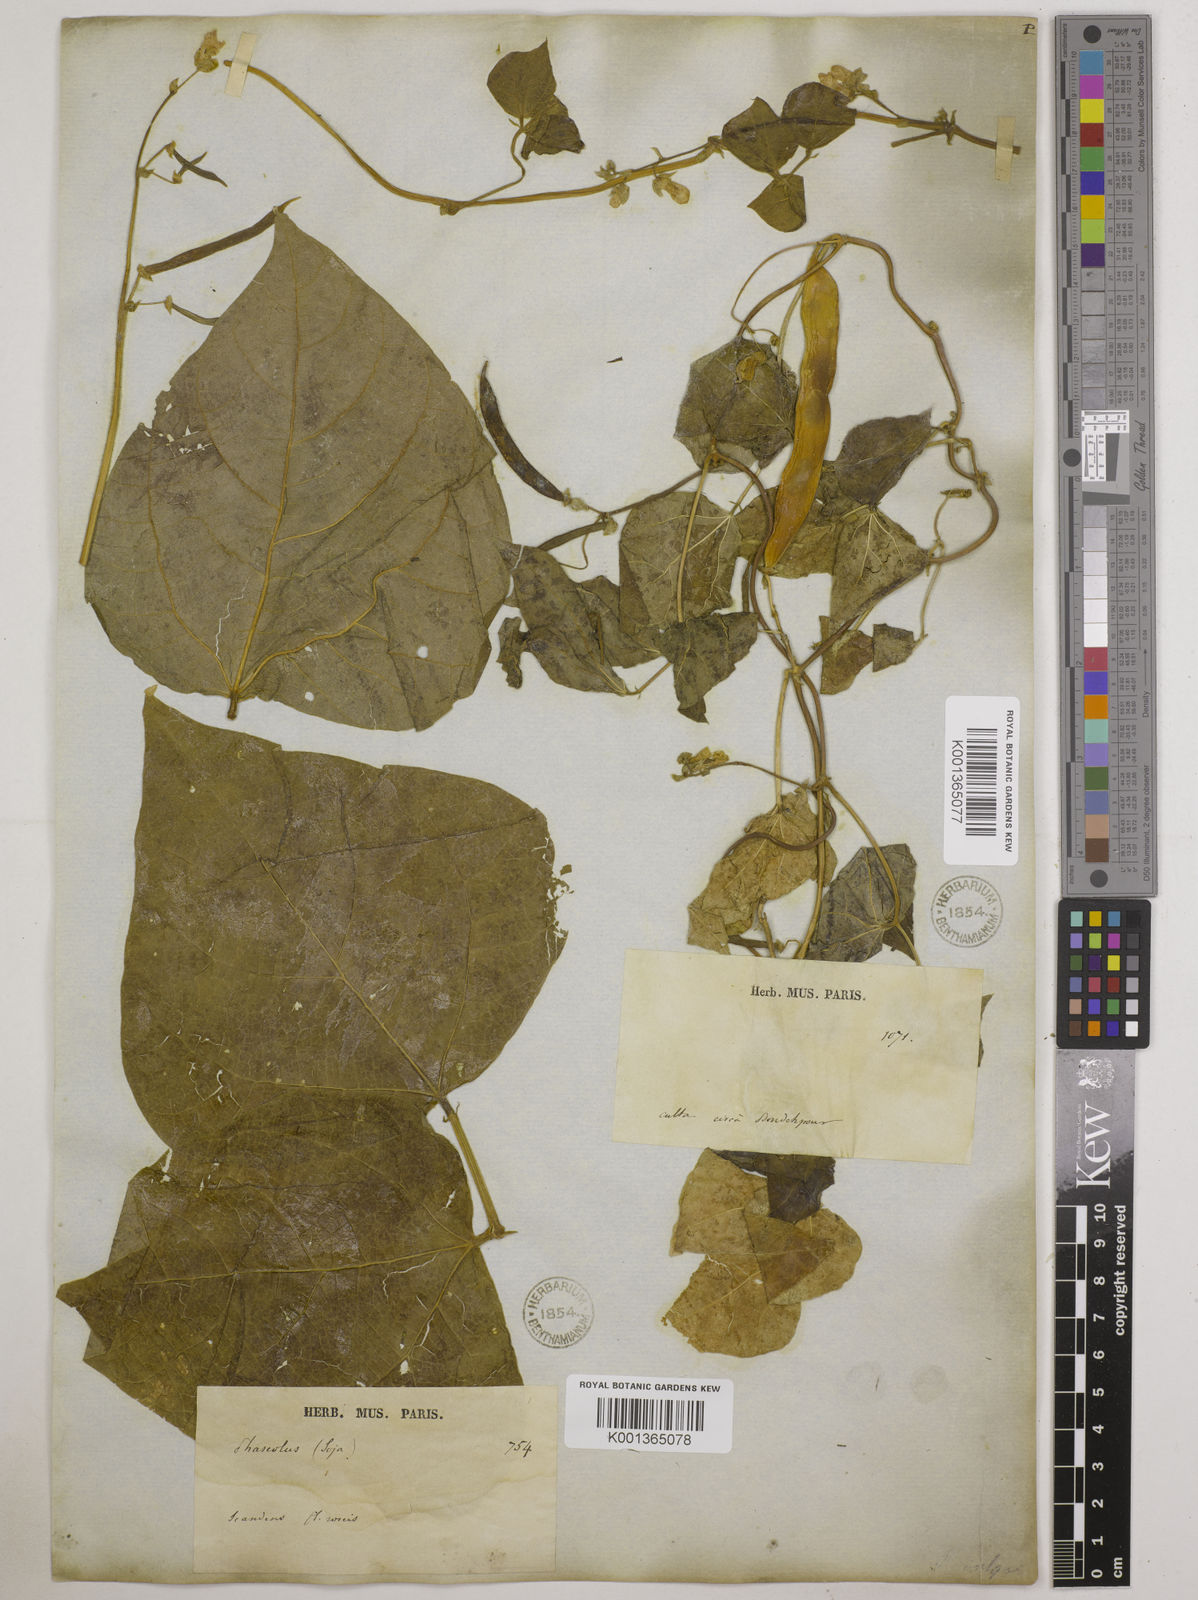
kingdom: Plantae
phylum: Tracheophyta
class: Magnoliopsida
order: Fabales
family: Fabaceae
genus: Phaseolus
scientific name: Phaseolus vulgaris
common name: Bean
